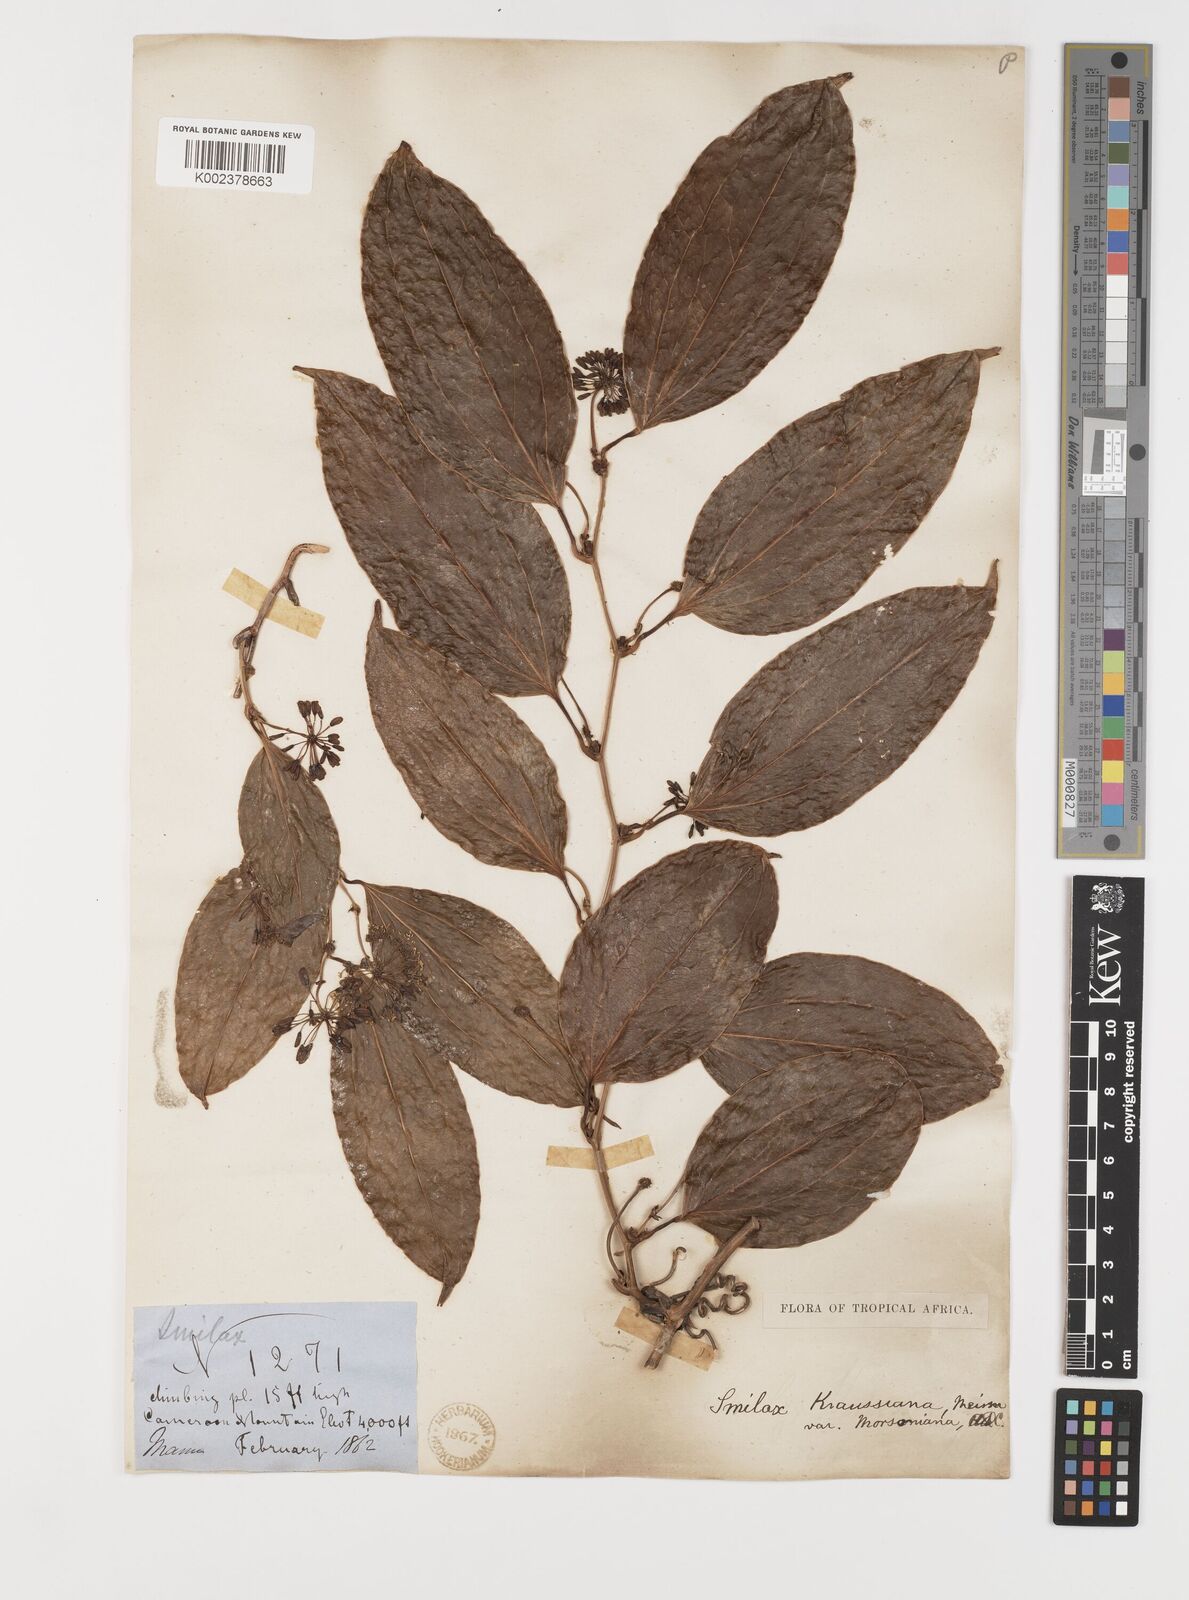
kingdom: Plantae
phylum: Tracheophyta
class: Liliopsida
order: Liliales
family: Smilacaceae
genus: Smilax
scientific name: Smilax anceps
